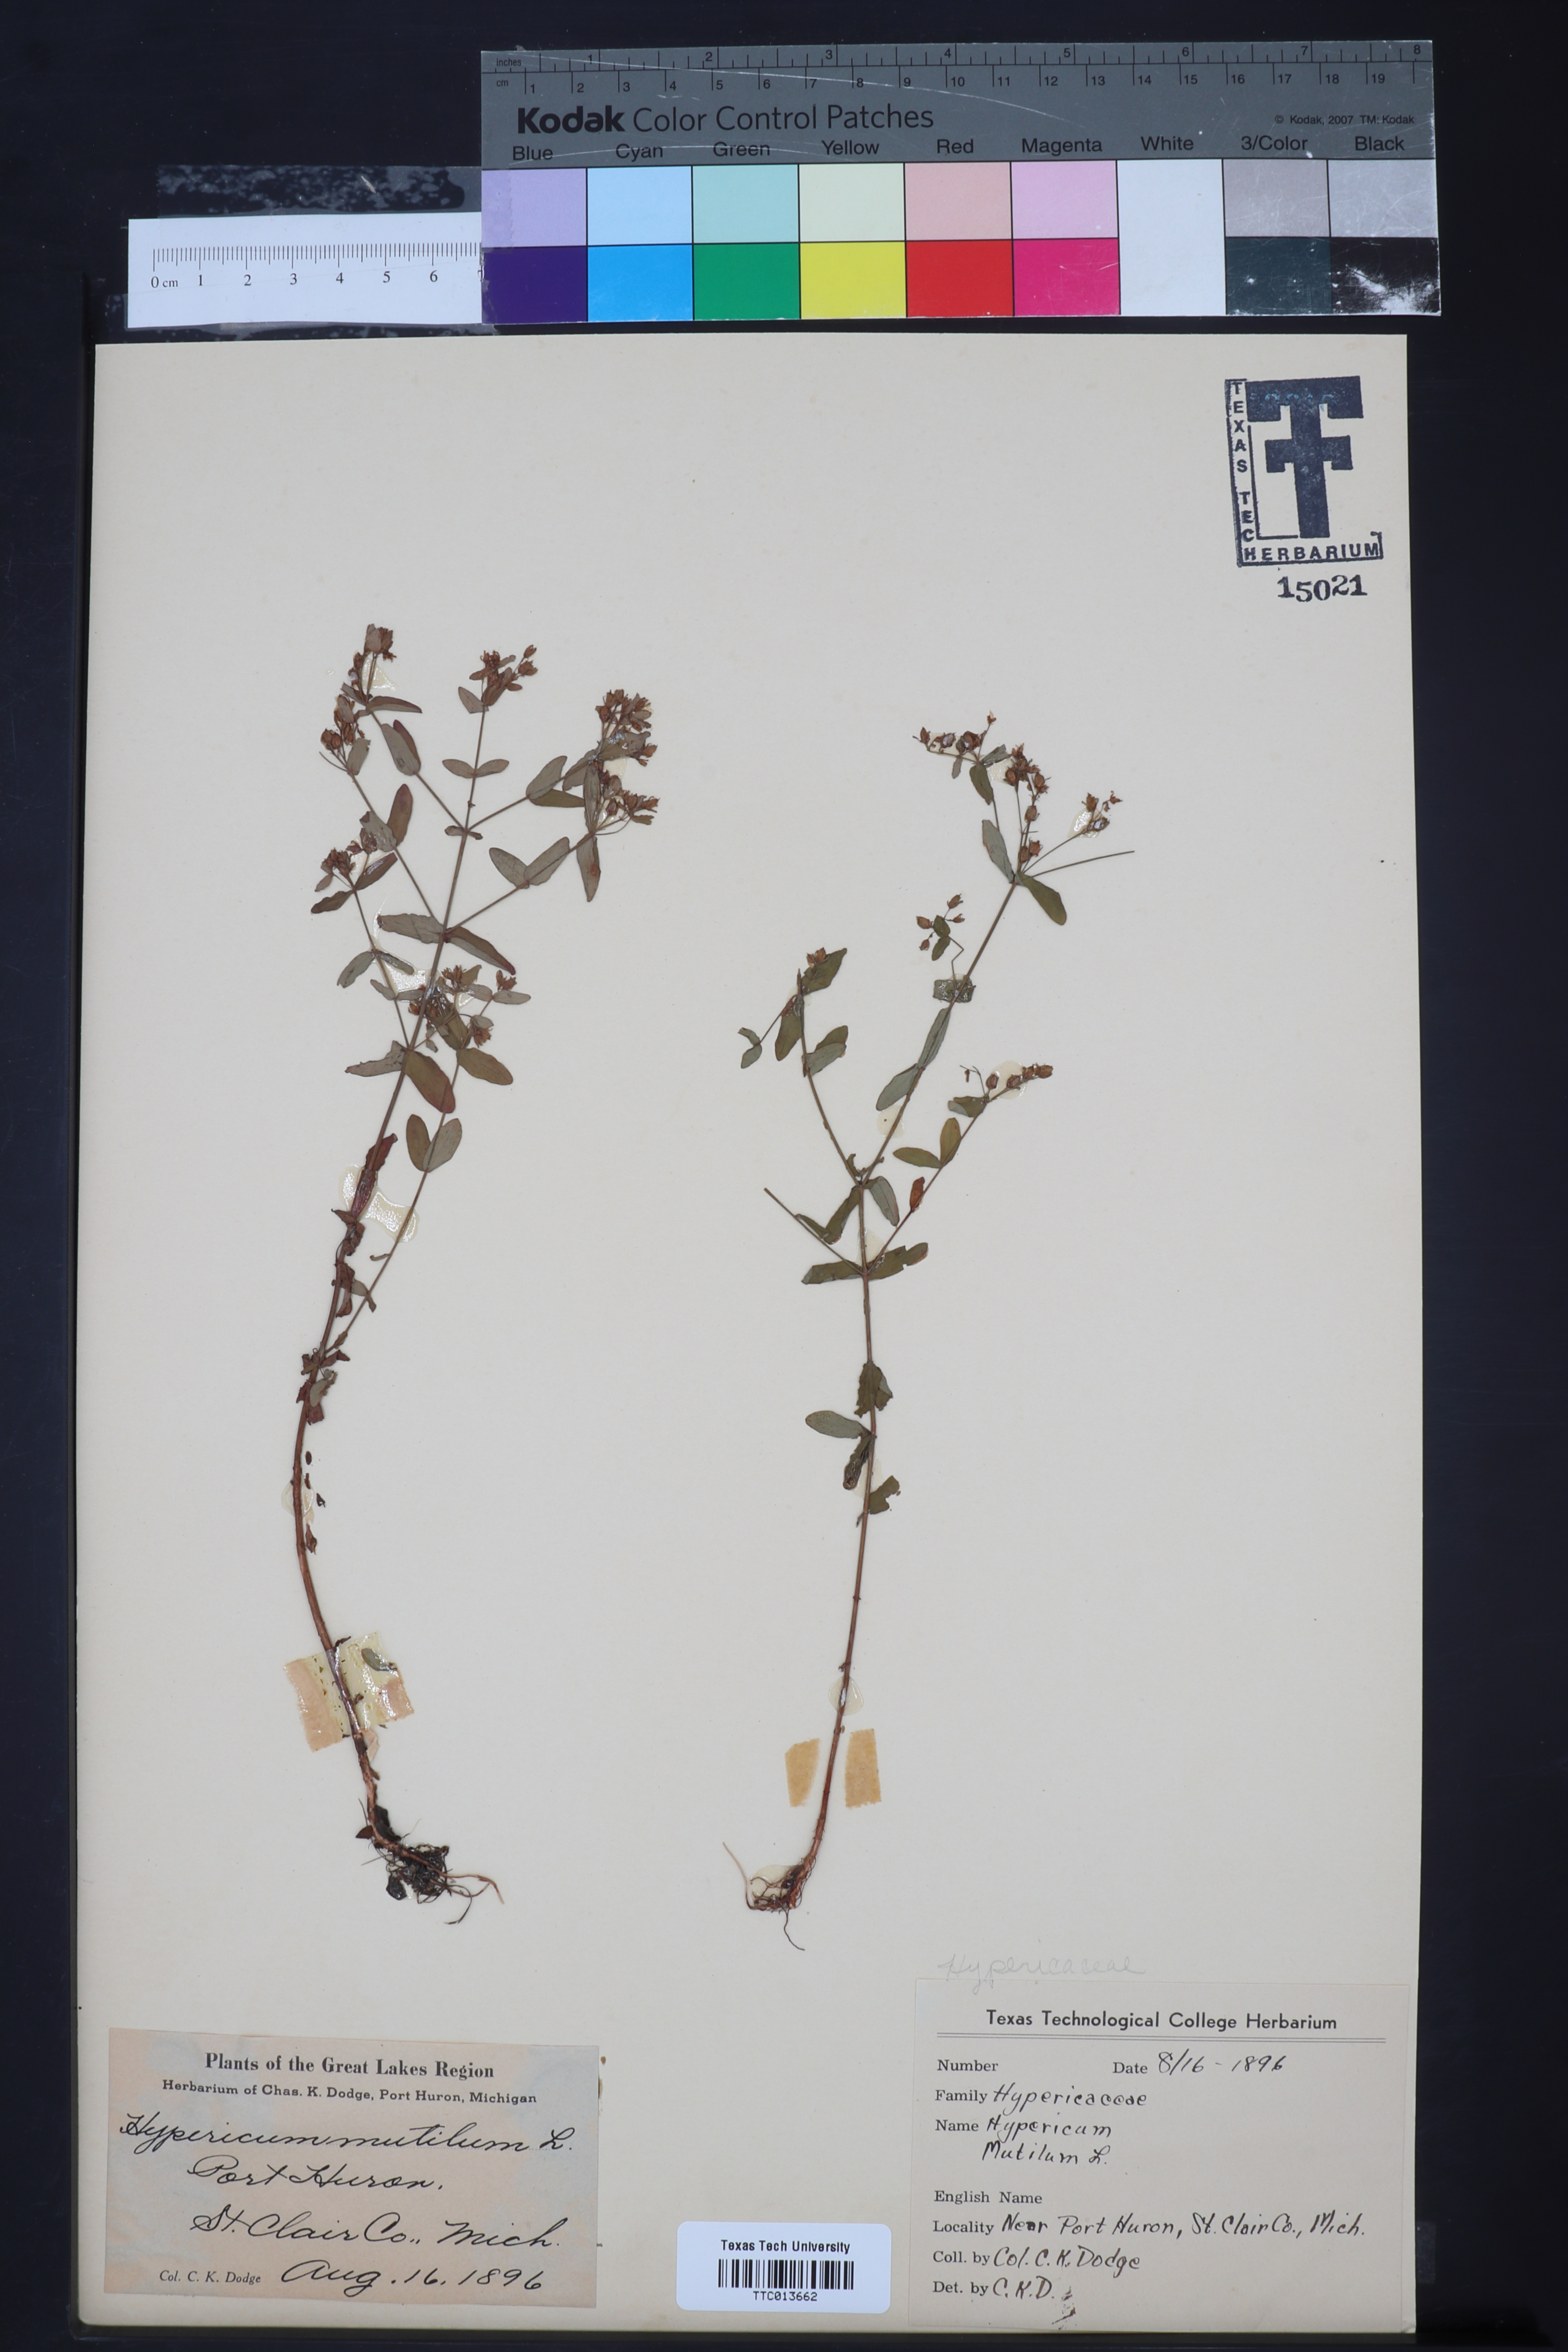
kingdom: Plantae
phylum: Tracheophyta
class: Magnoliopsida
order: Malpighiales
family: Hypericaceae
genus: Hypericum
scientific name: Hypericum gentianoides
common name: Gentian-leaved st. john's-wort
